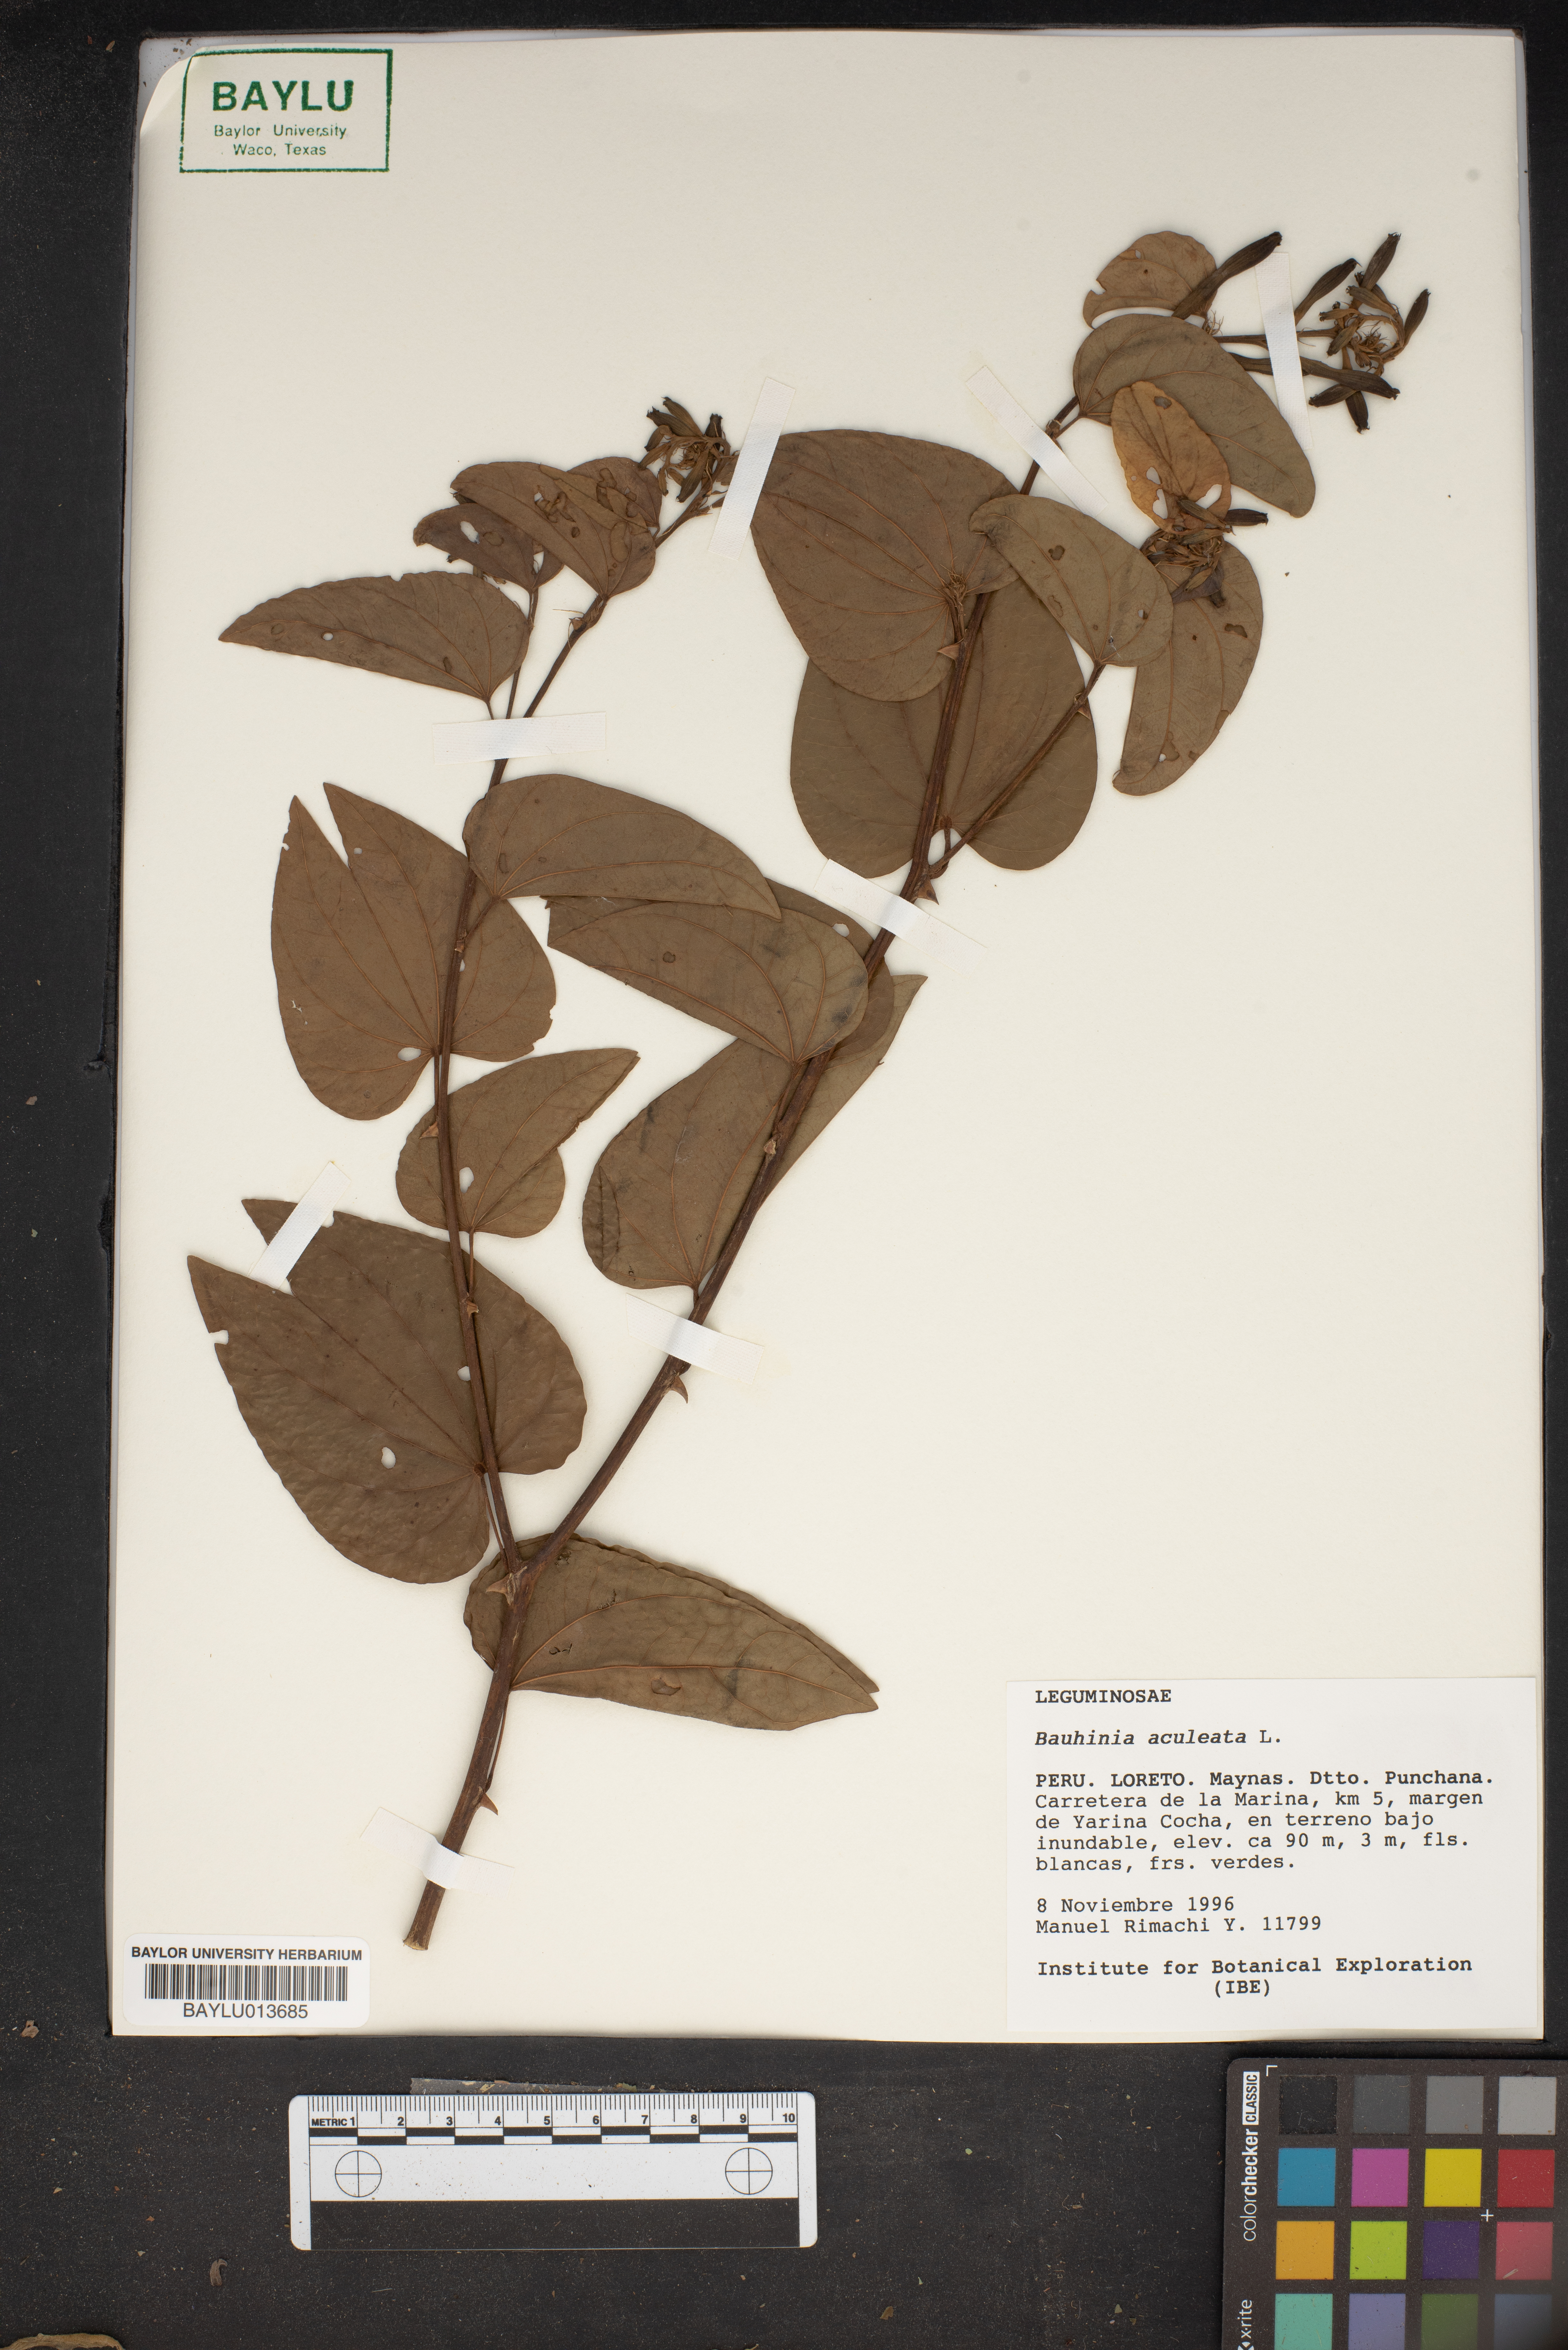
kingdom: Plantae
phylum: Tracheophyta
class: Magnoliopsida
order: Fabales
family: Fabaceae
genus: Bauhinia
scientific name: Bauhinia aculeata
